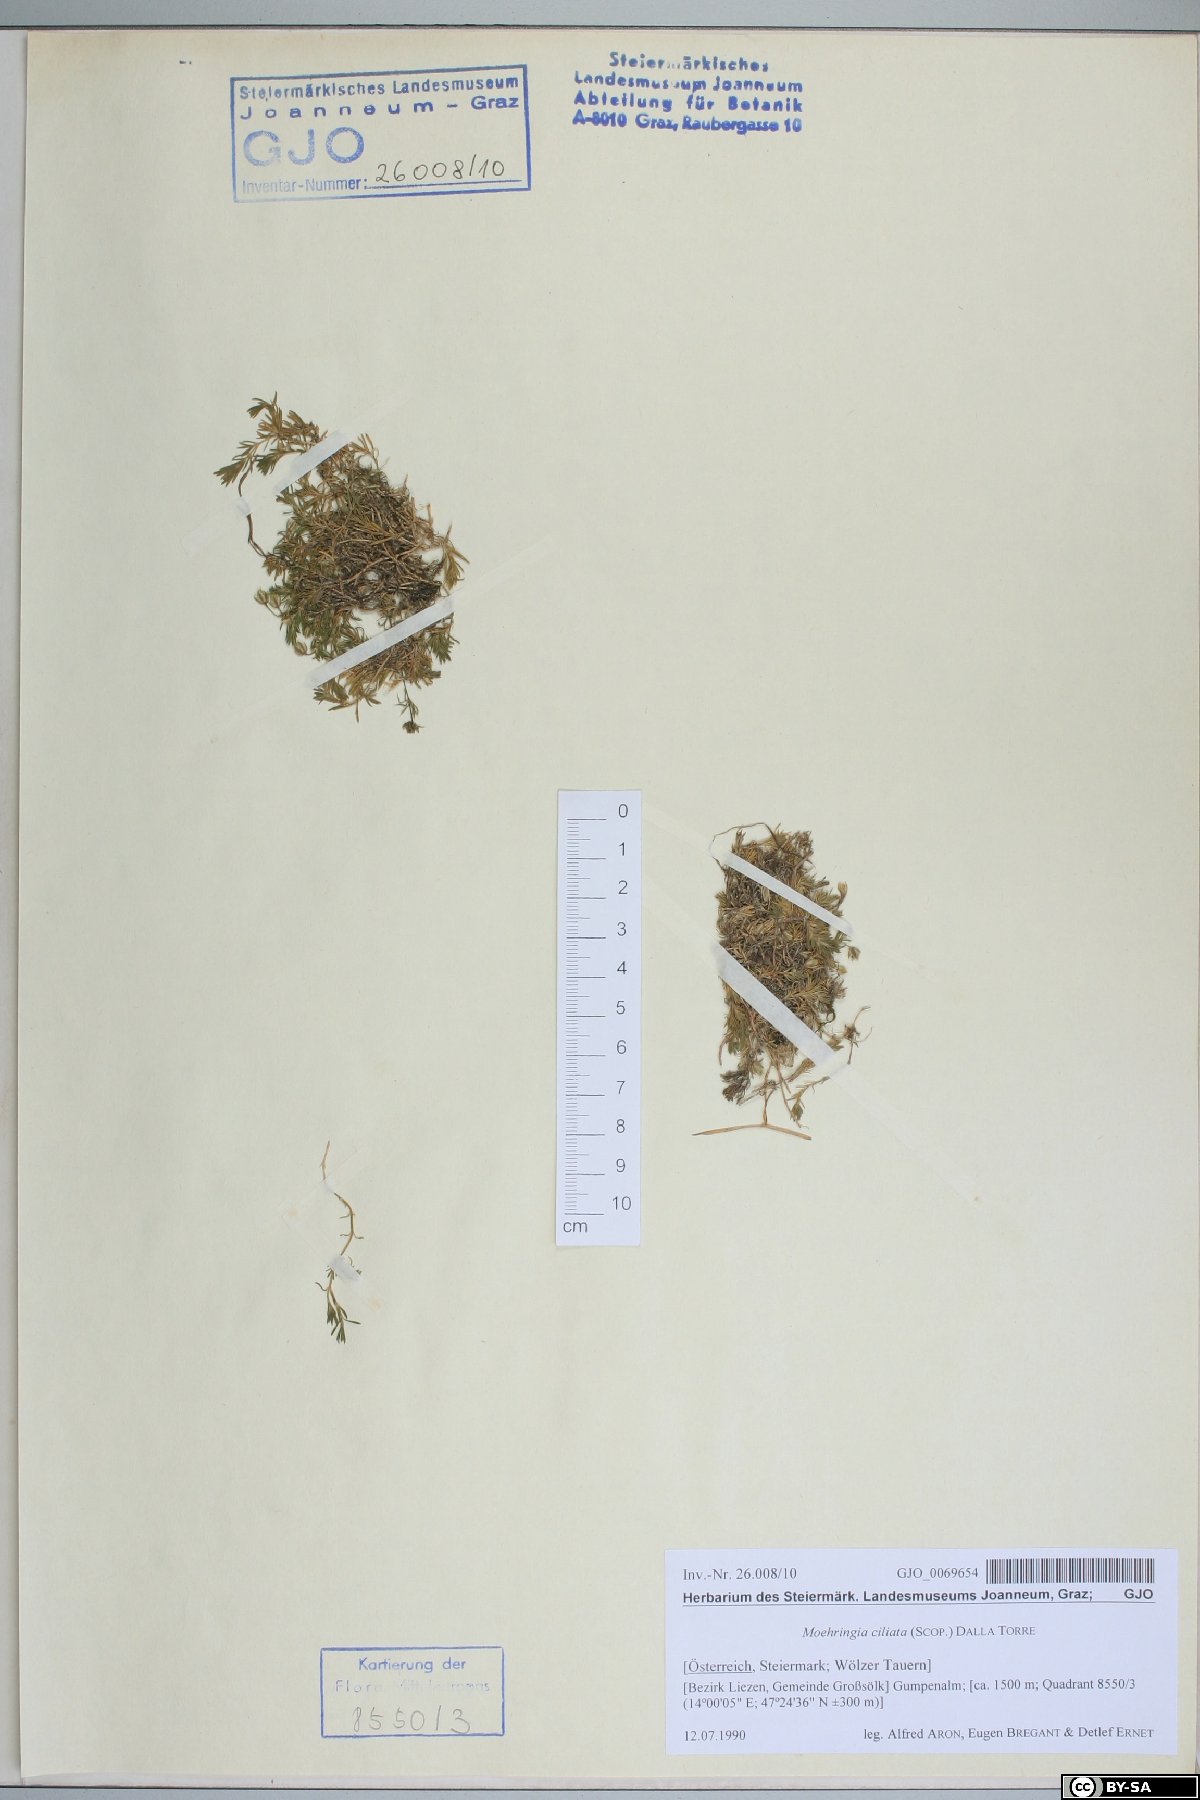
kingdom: Plantae
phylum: Tracheophyta
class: Magnoliopsida
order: Caryophyllales
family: Caryophyllaceae
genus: Moehringia
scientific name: Moehringia ciliata
